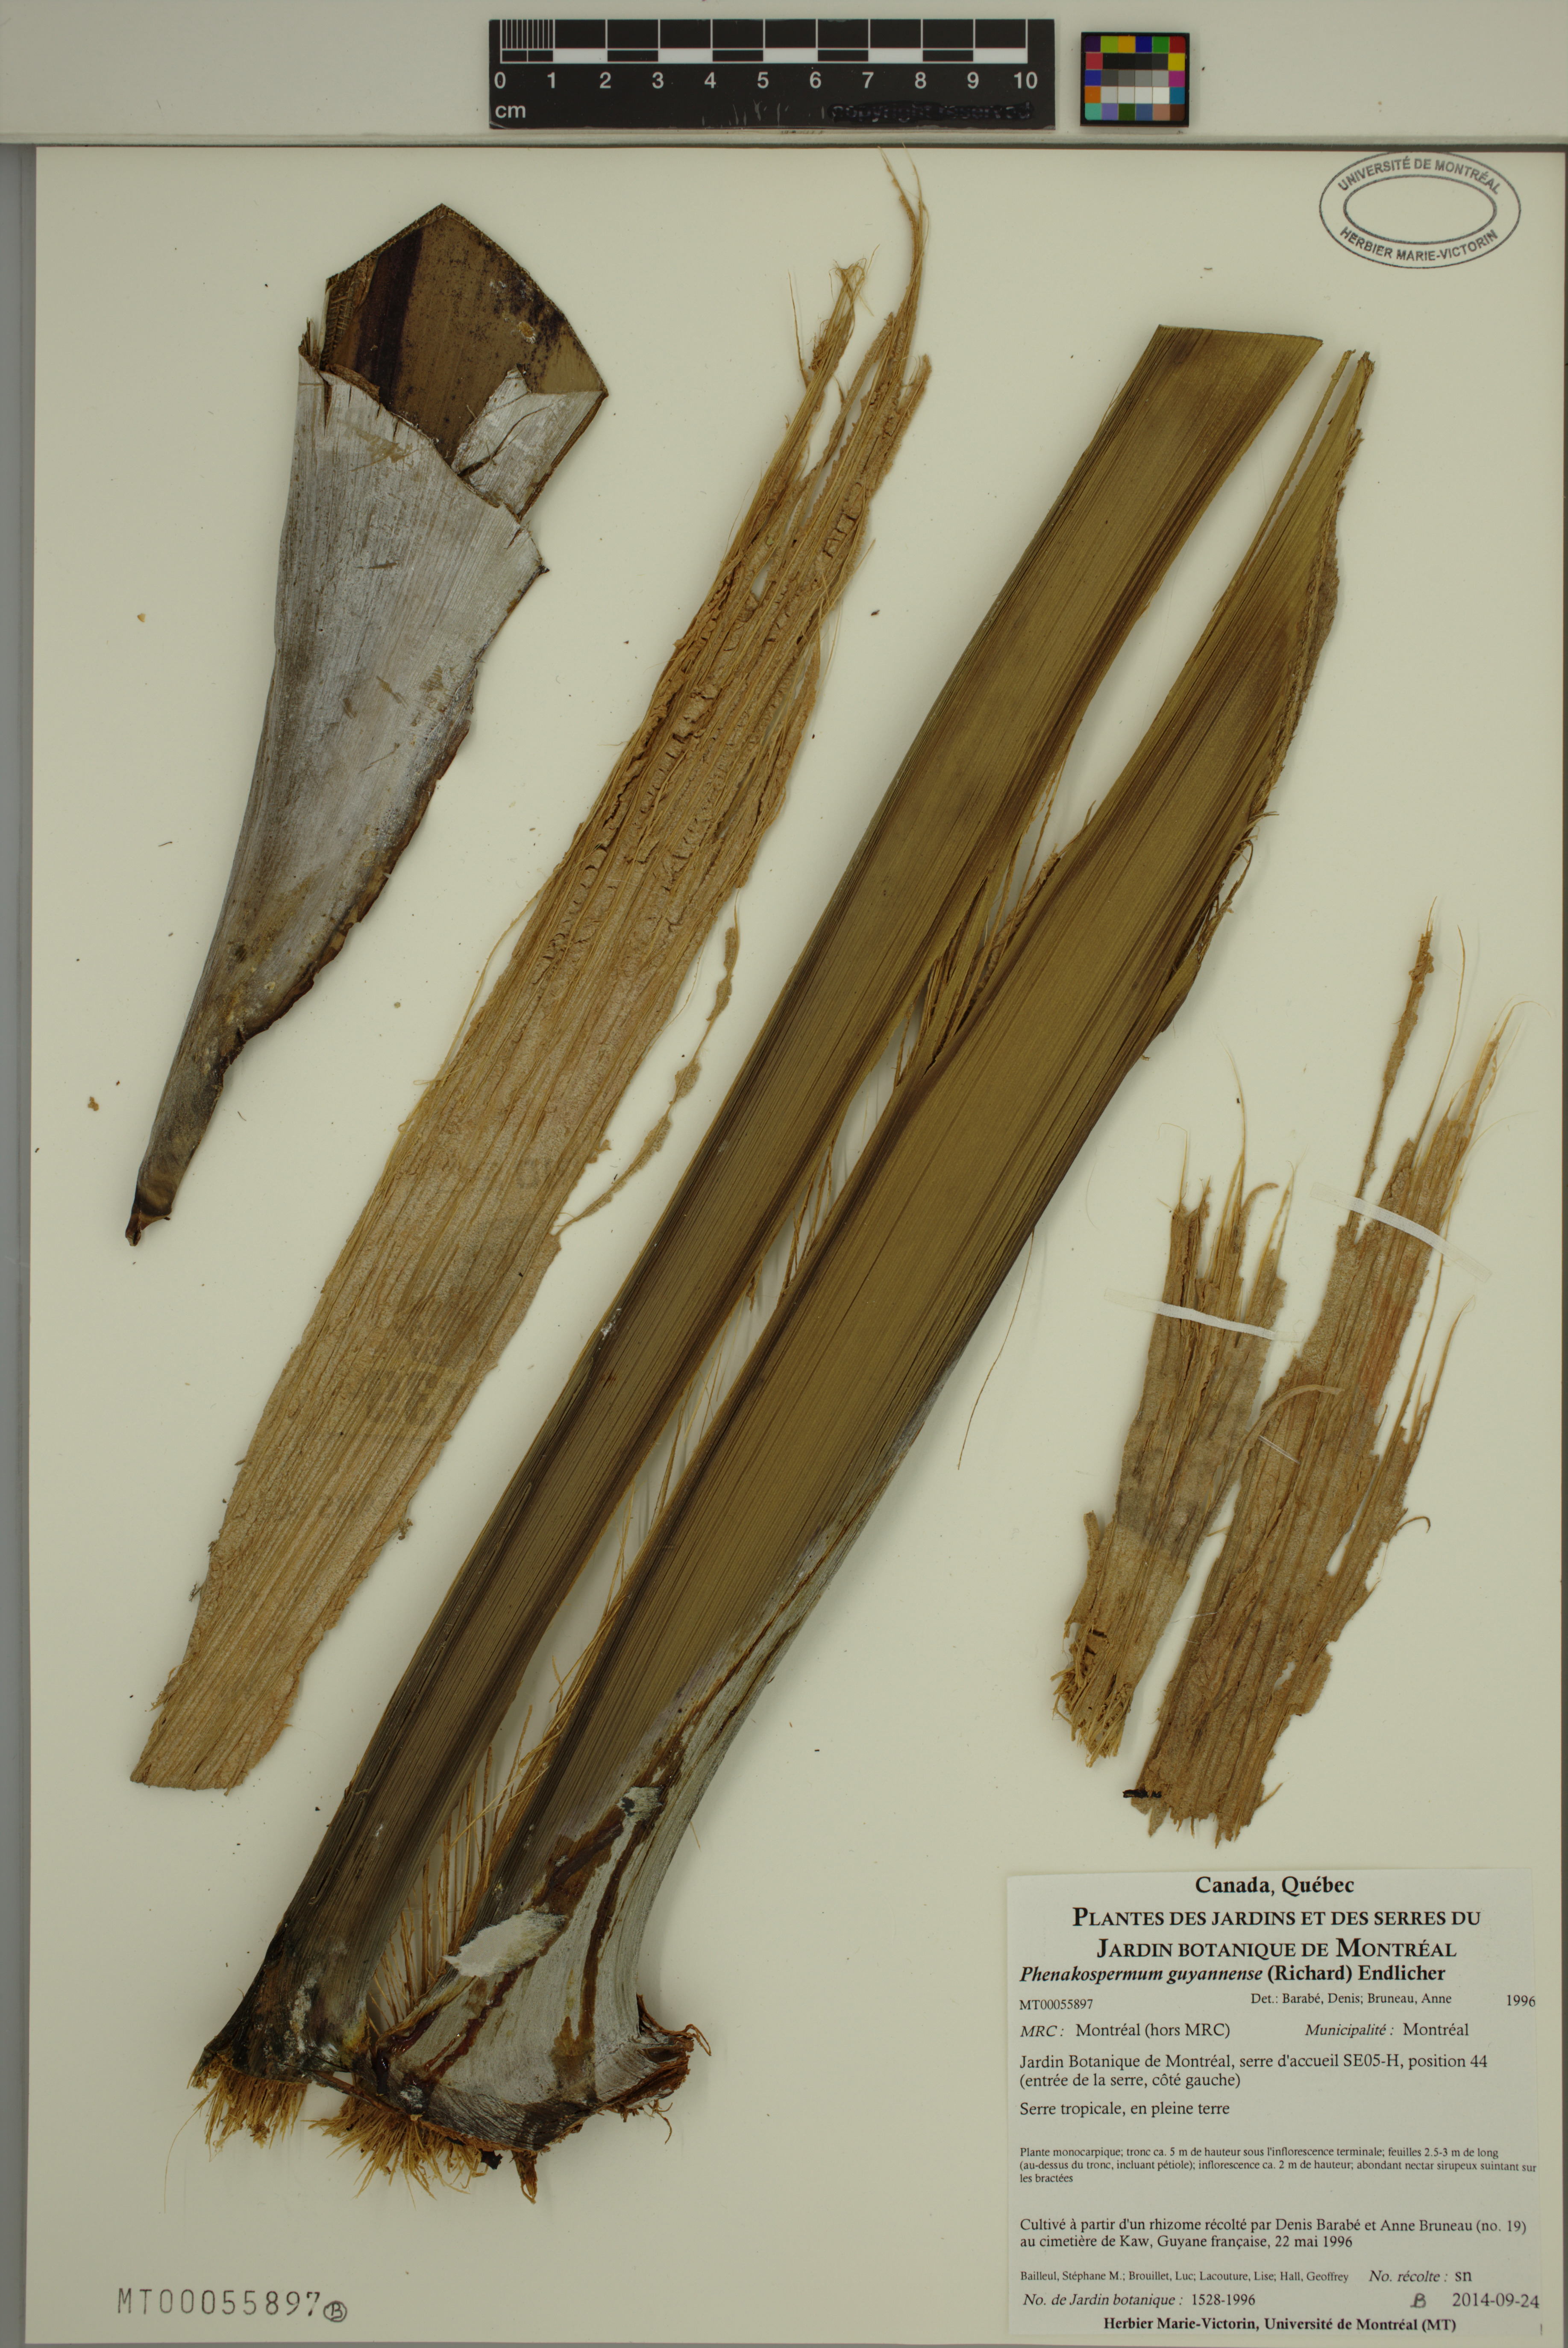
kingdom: Plantae
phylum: Tracheophyta
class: Liliopsida
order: Zingiberales
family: Strelitziaceae
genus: Phenakospermum
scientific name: Phenakospermum guyannense
